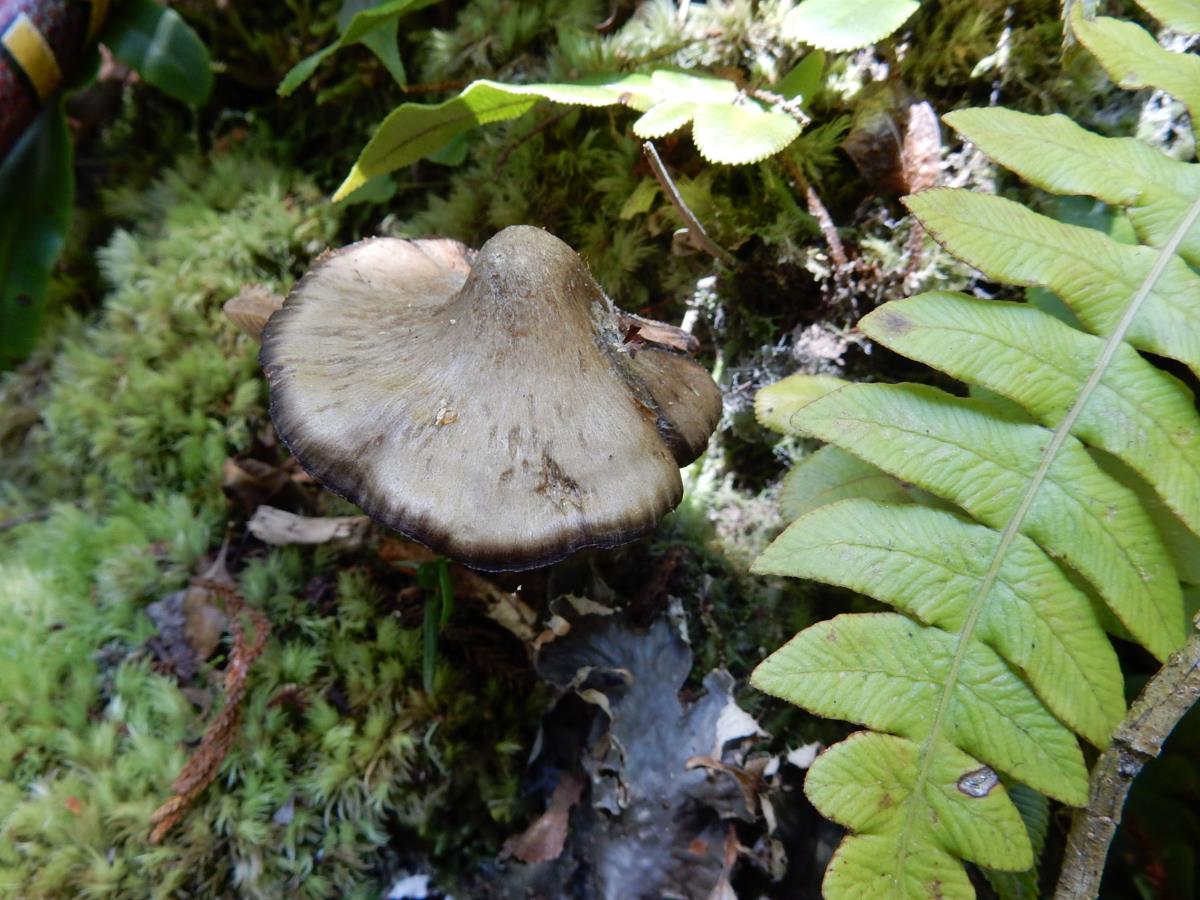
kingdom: Fungi
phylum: Basidiomycota
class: Agaricomycetes
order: Agaricales
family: Entolomataceae
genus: Entoloma
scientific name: Entoloma translucidum
